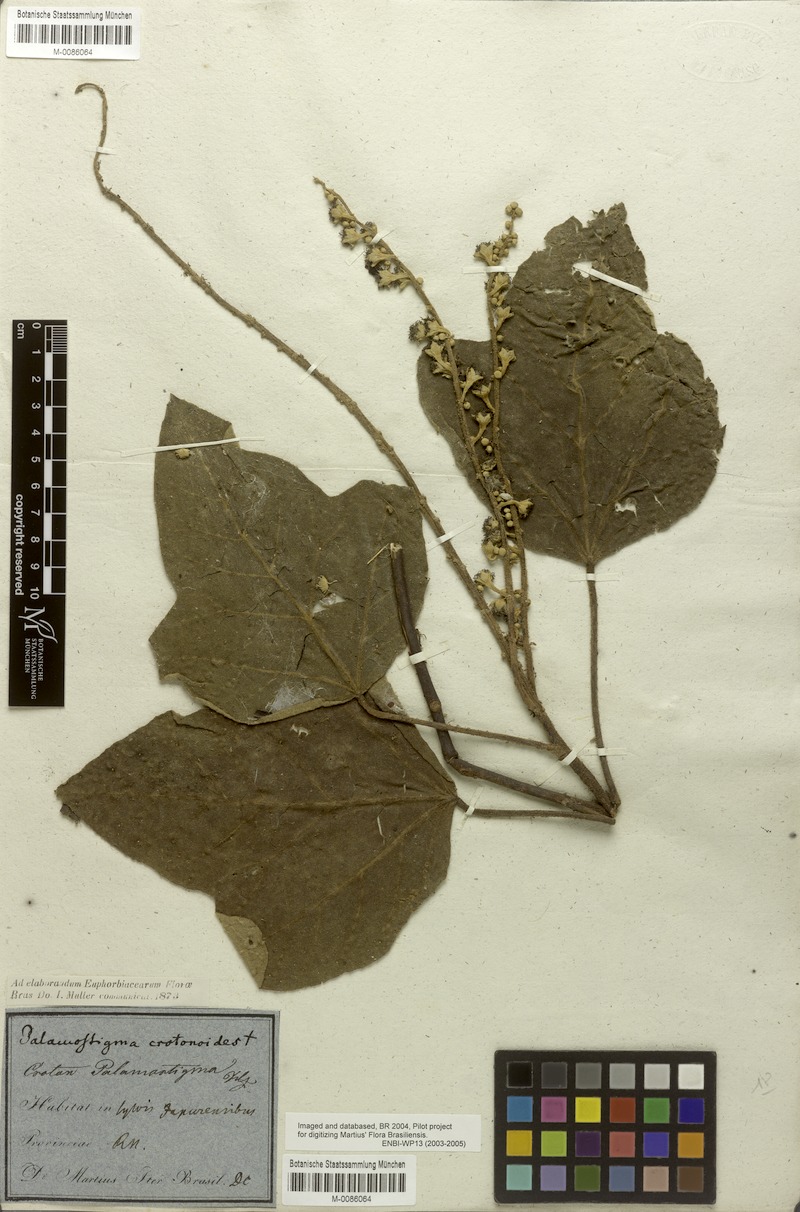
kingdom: Plantae
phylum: Tracheophyta
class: Magnoliopsida
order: Malpighiales
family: Euphorbiaceae
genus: Croton
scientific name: Croton palanostigma
